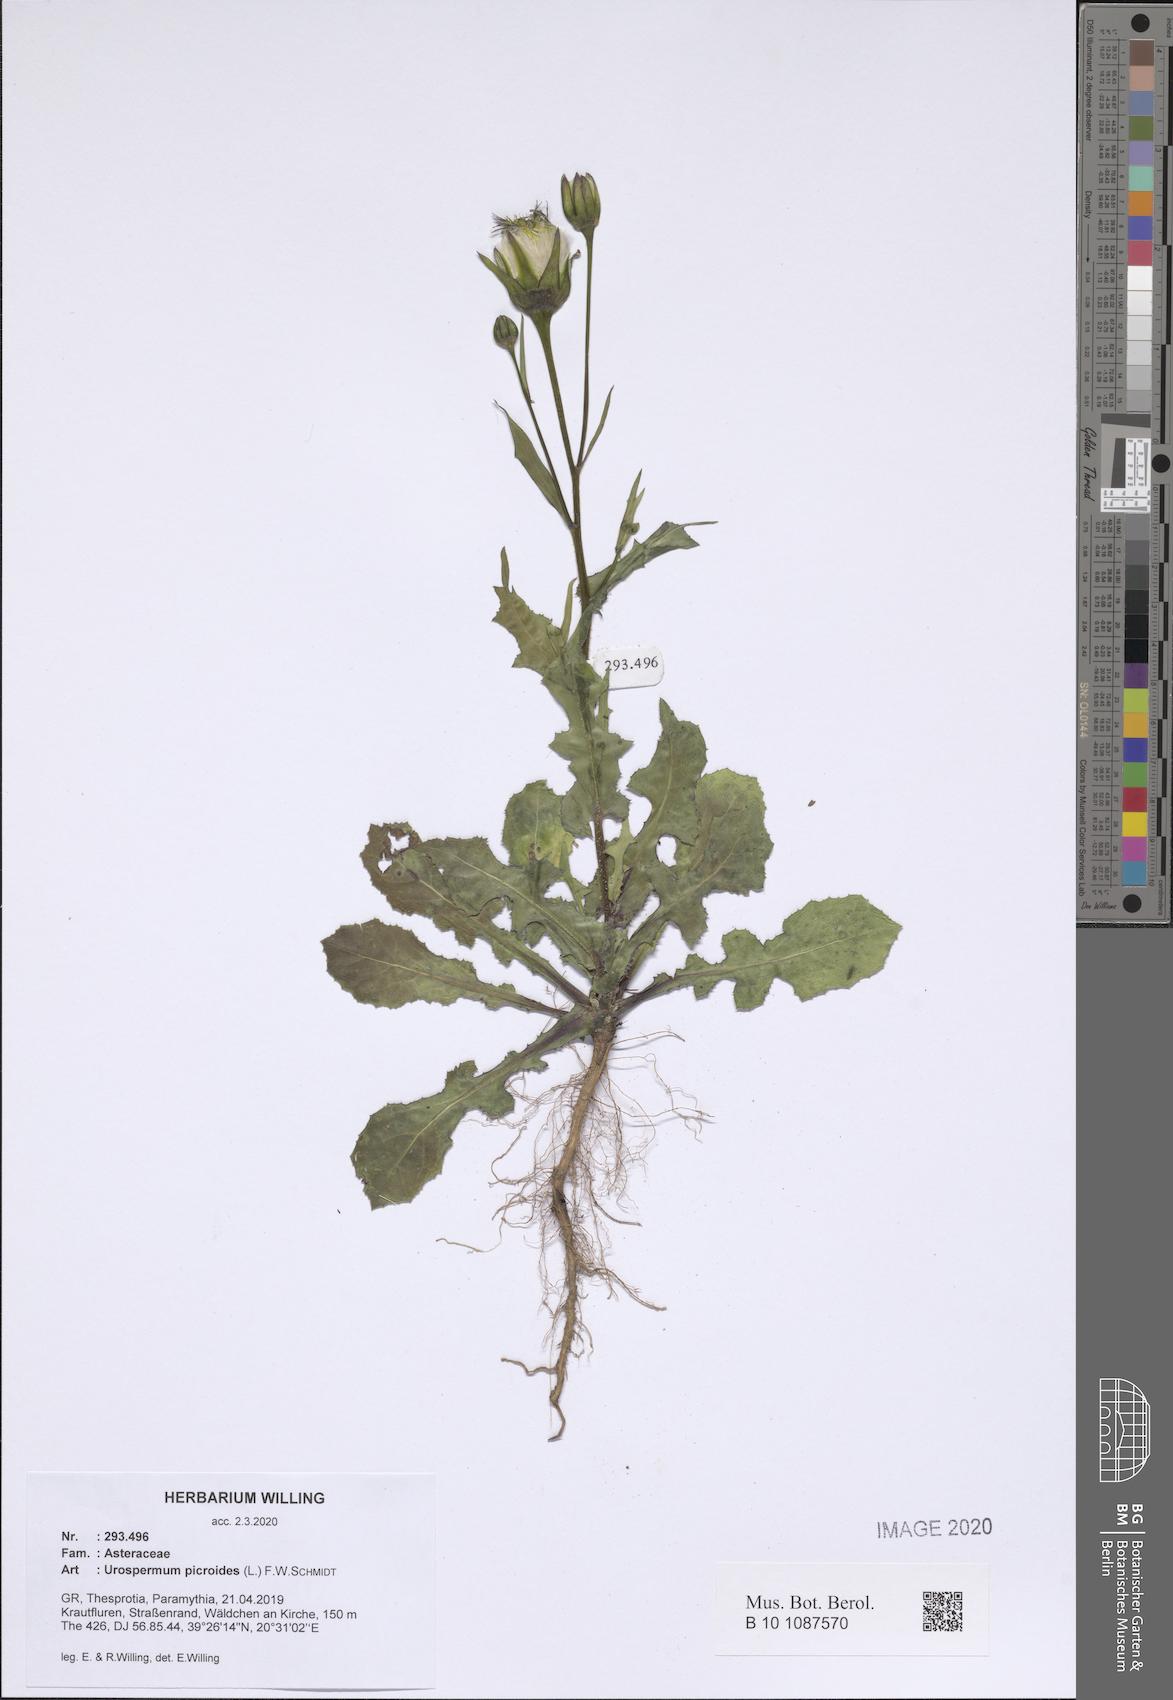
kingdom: Plantae
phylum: Tracheophyta
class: Magnoliopsida
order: Asterales
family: Asteraceae
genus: Urospermum
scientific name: Urospermum picroides
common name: False hawkbit
